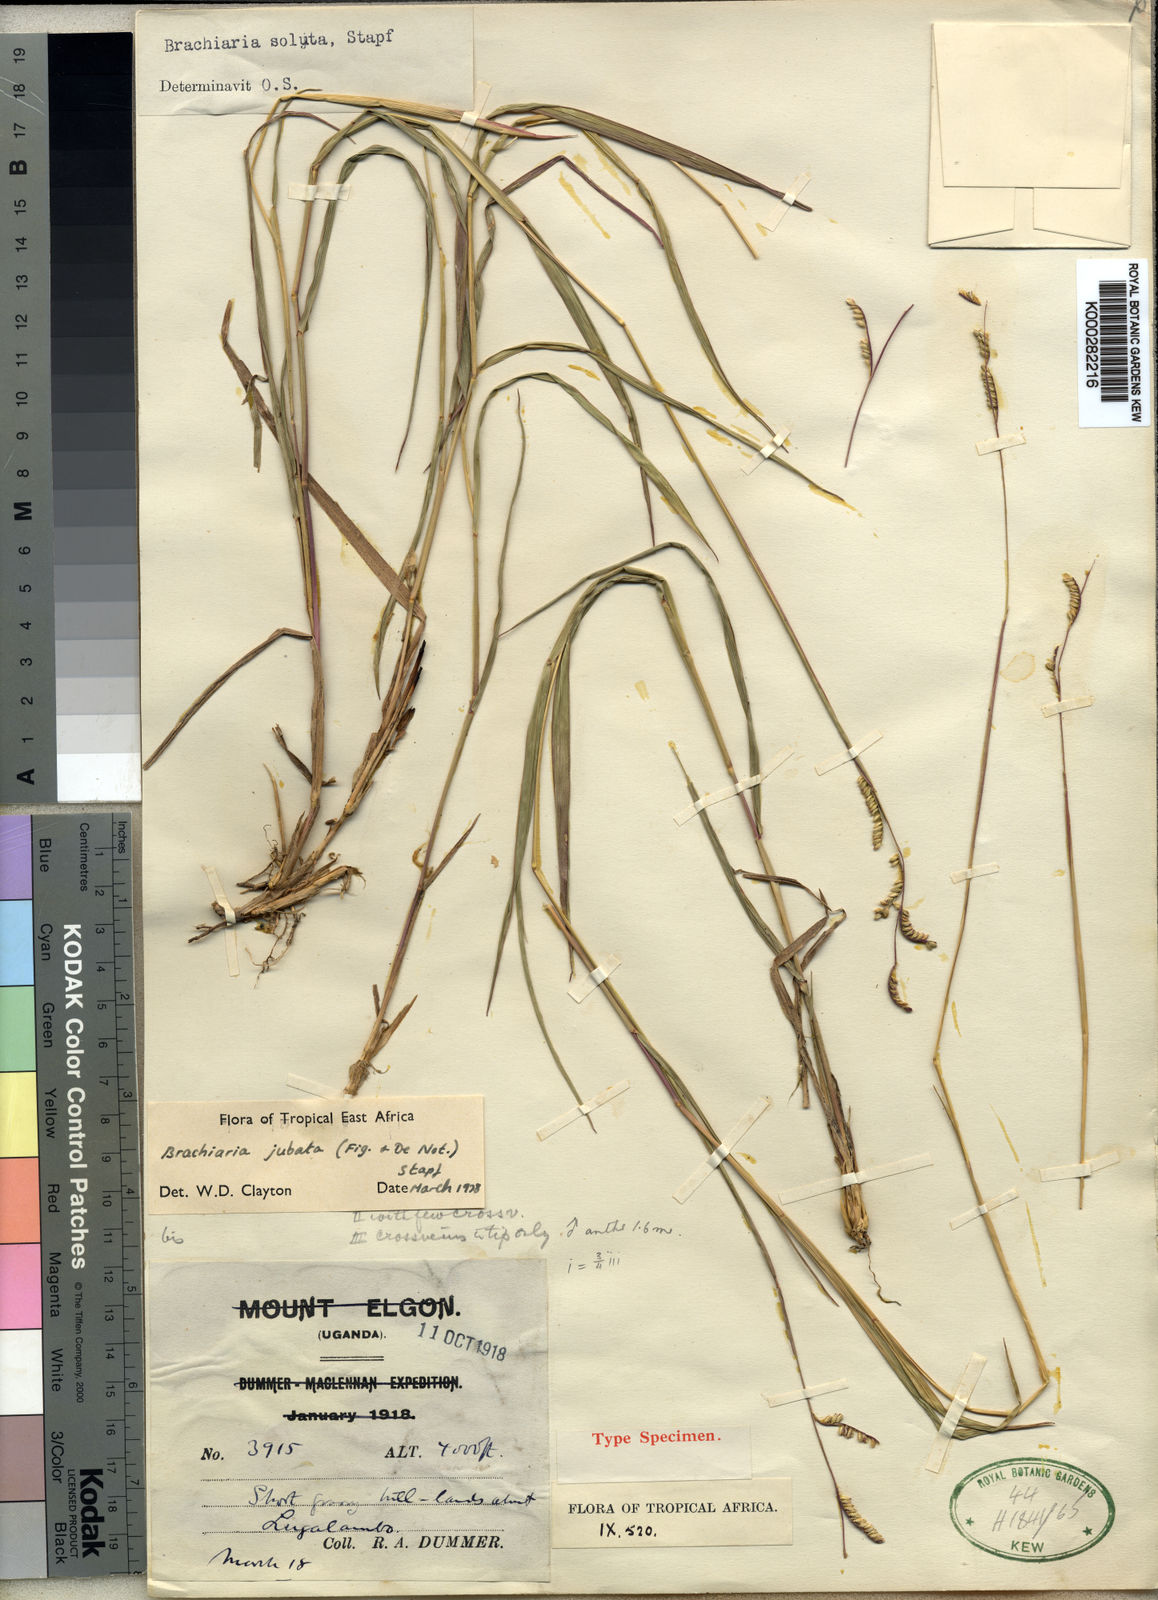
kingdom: Plantae
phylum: Tracheophyta
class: Liliopsida
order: Poales
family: Poaceae
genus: Urochloa
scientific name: Urochloa jubata
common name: Buffalograss
